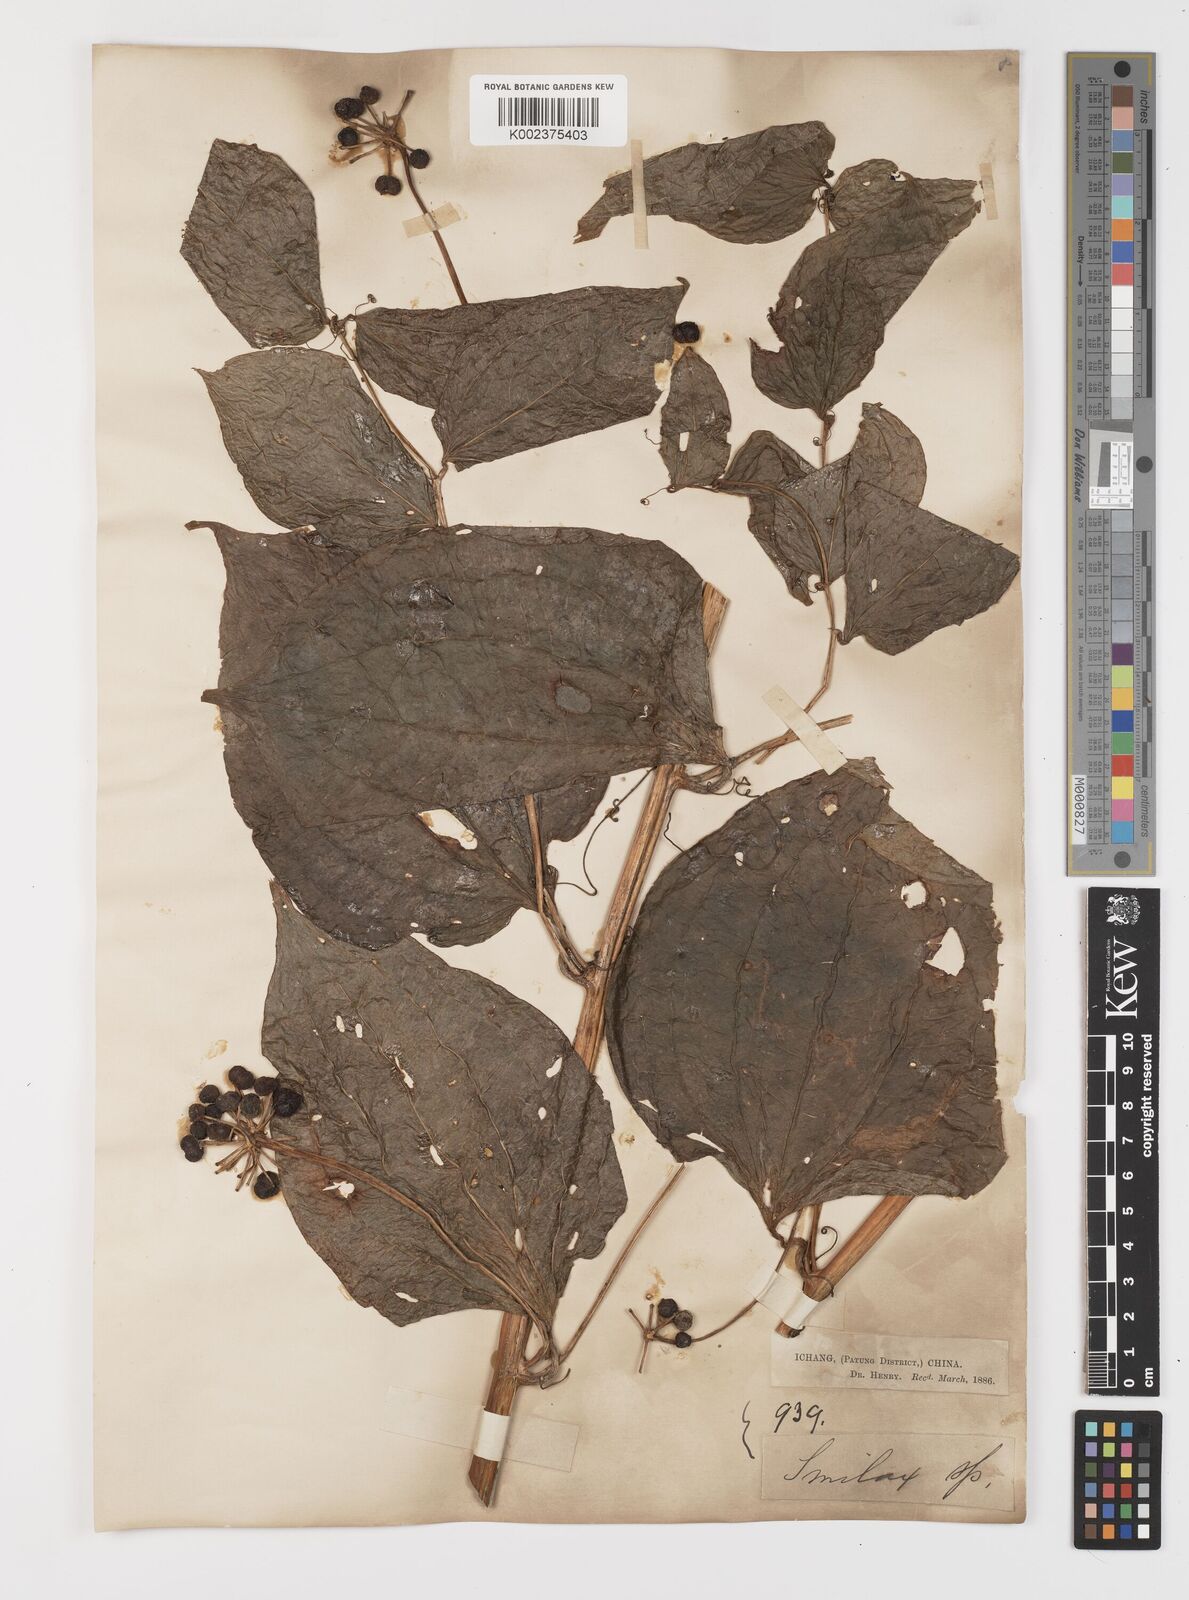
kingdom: Plantae
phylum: Tracheophyta
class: Liliopsida
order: Liliales
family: Smilacaceae
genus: Smilax
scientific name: Smilax nipponica
